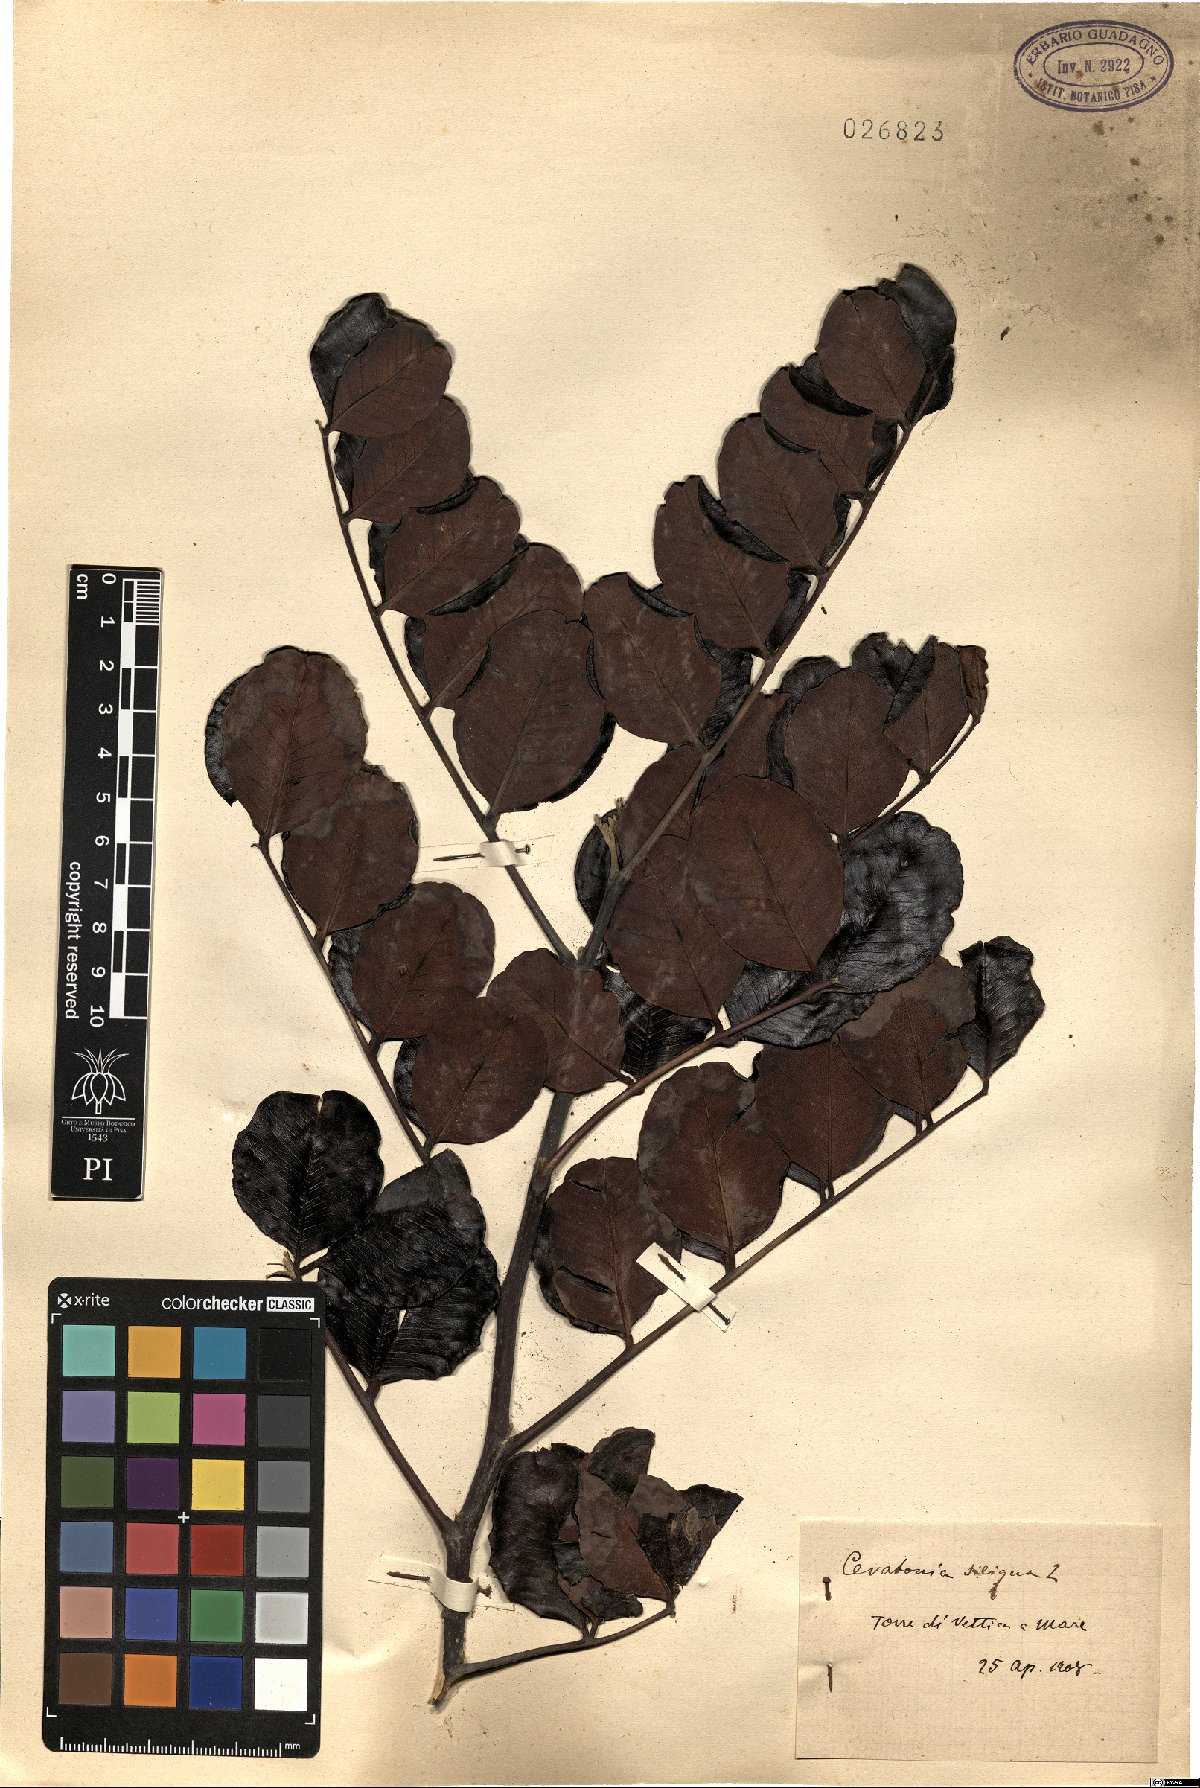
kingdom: Plantae
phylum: Tracheophyta
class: Magnoliopsida
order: Fabales
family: Fabaceae
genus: Ceratonia
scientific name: Ceratonia siliqua
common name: Carob
